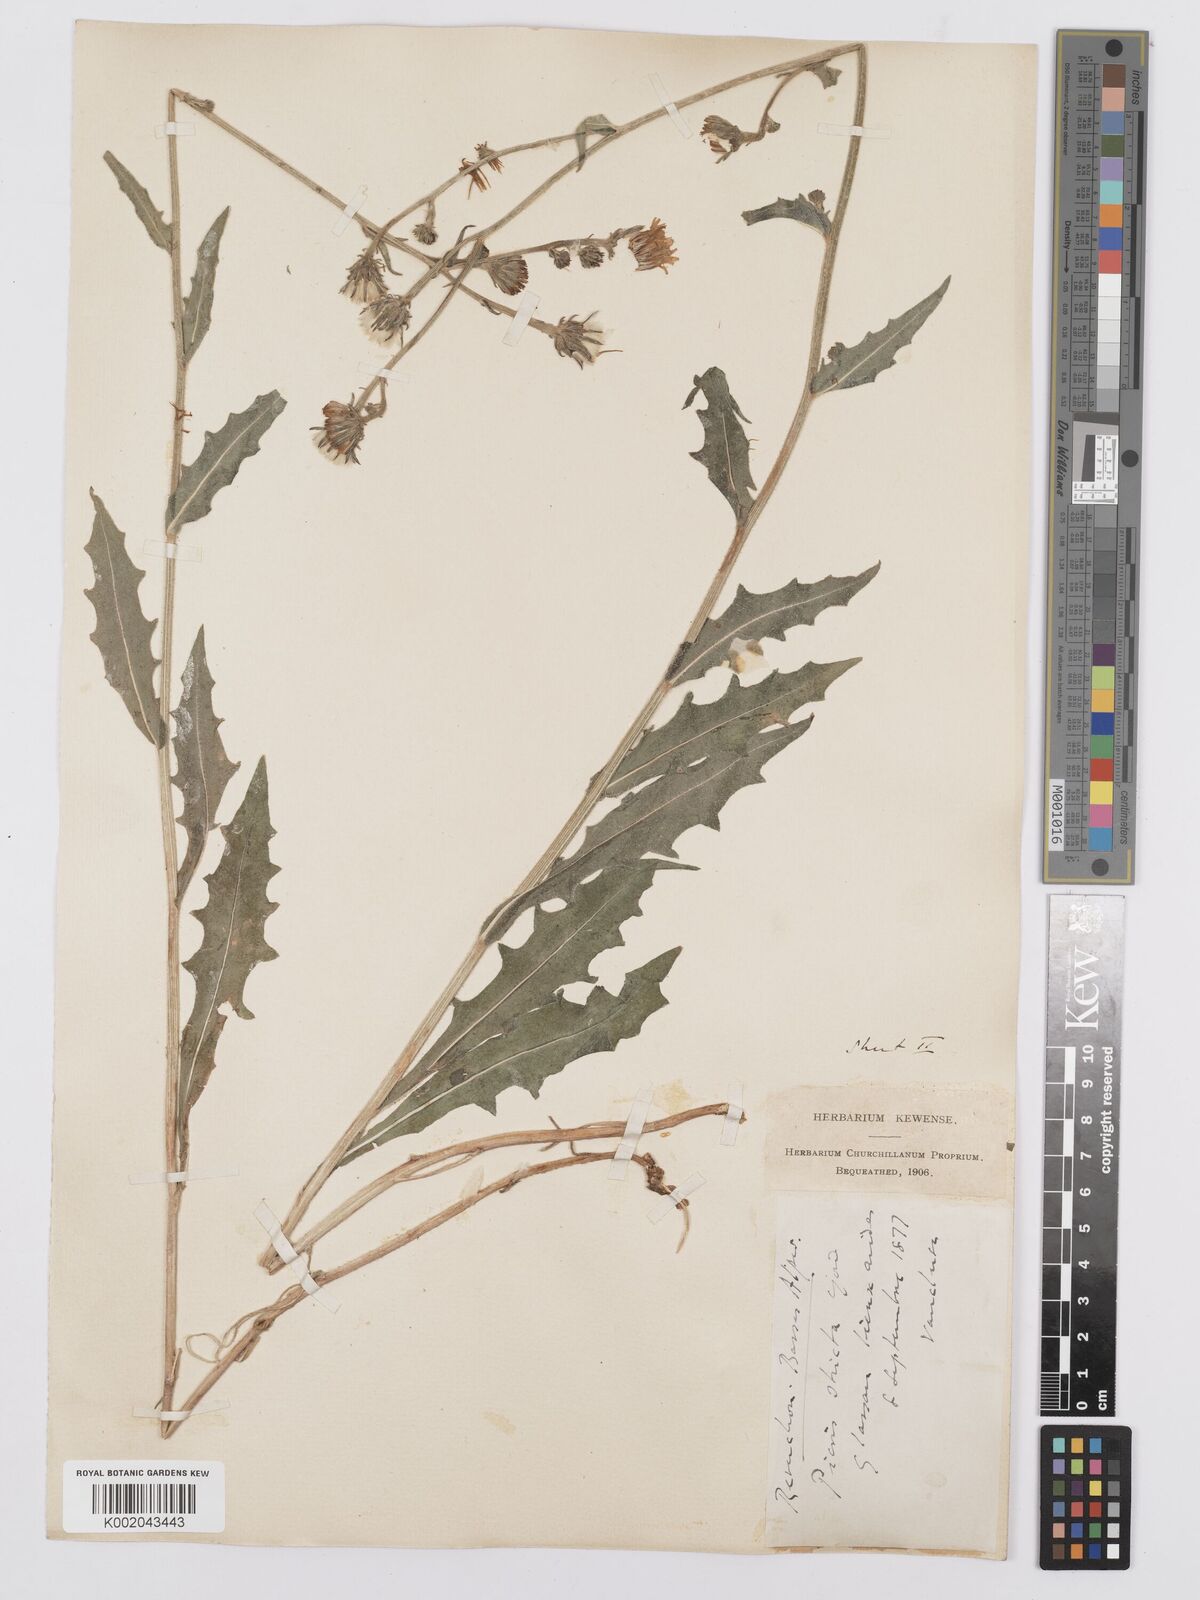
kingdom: Plantae
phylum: Tracheophyta
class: Magnoliopsida
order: Asterales
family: Asteraceae
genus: Picris
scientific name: Picris hieracioides
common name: Hawkweed oxtongue
